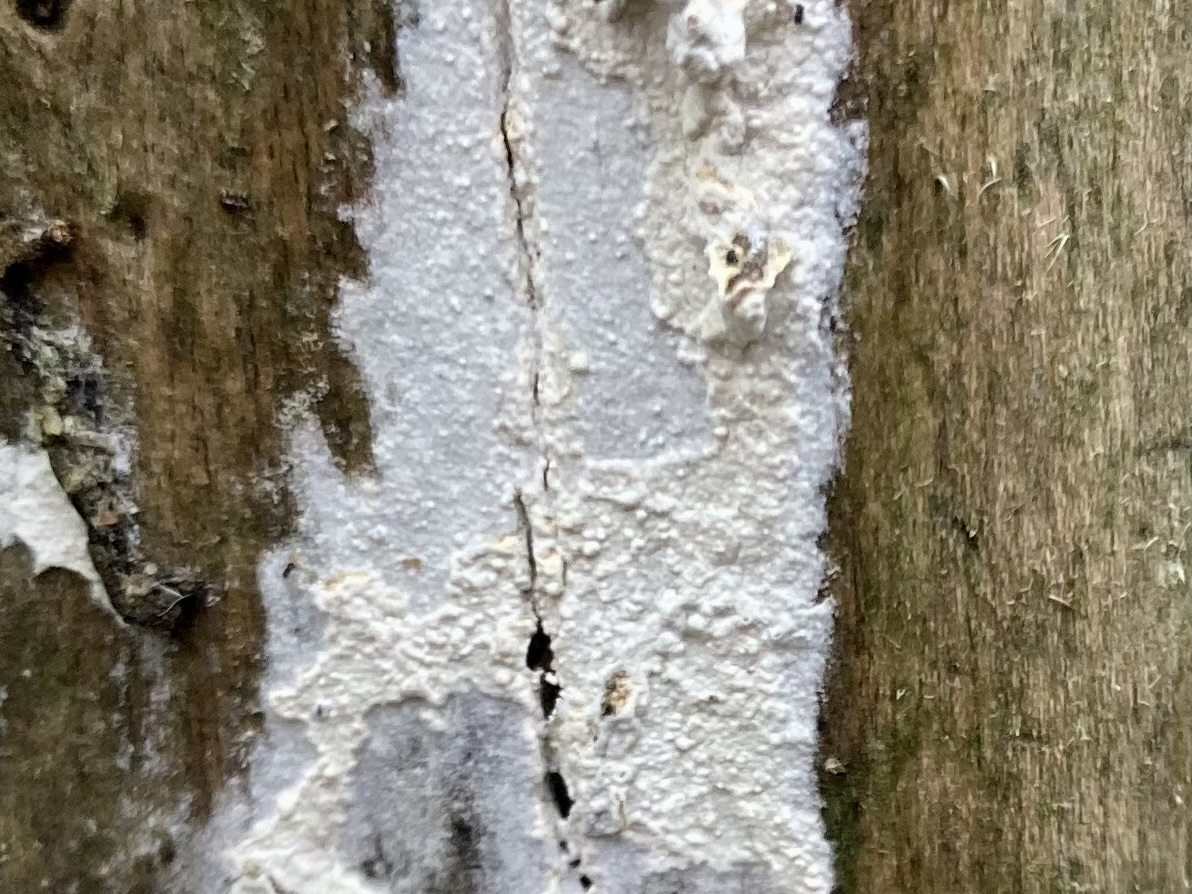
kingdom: Fungi
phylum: Basidiomycota
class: Agaricomycetes
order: Corticiales
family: Corticiaceae
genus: Lyomyces
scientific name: Lyomyces sambuci
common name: almindelig hyldehinde
